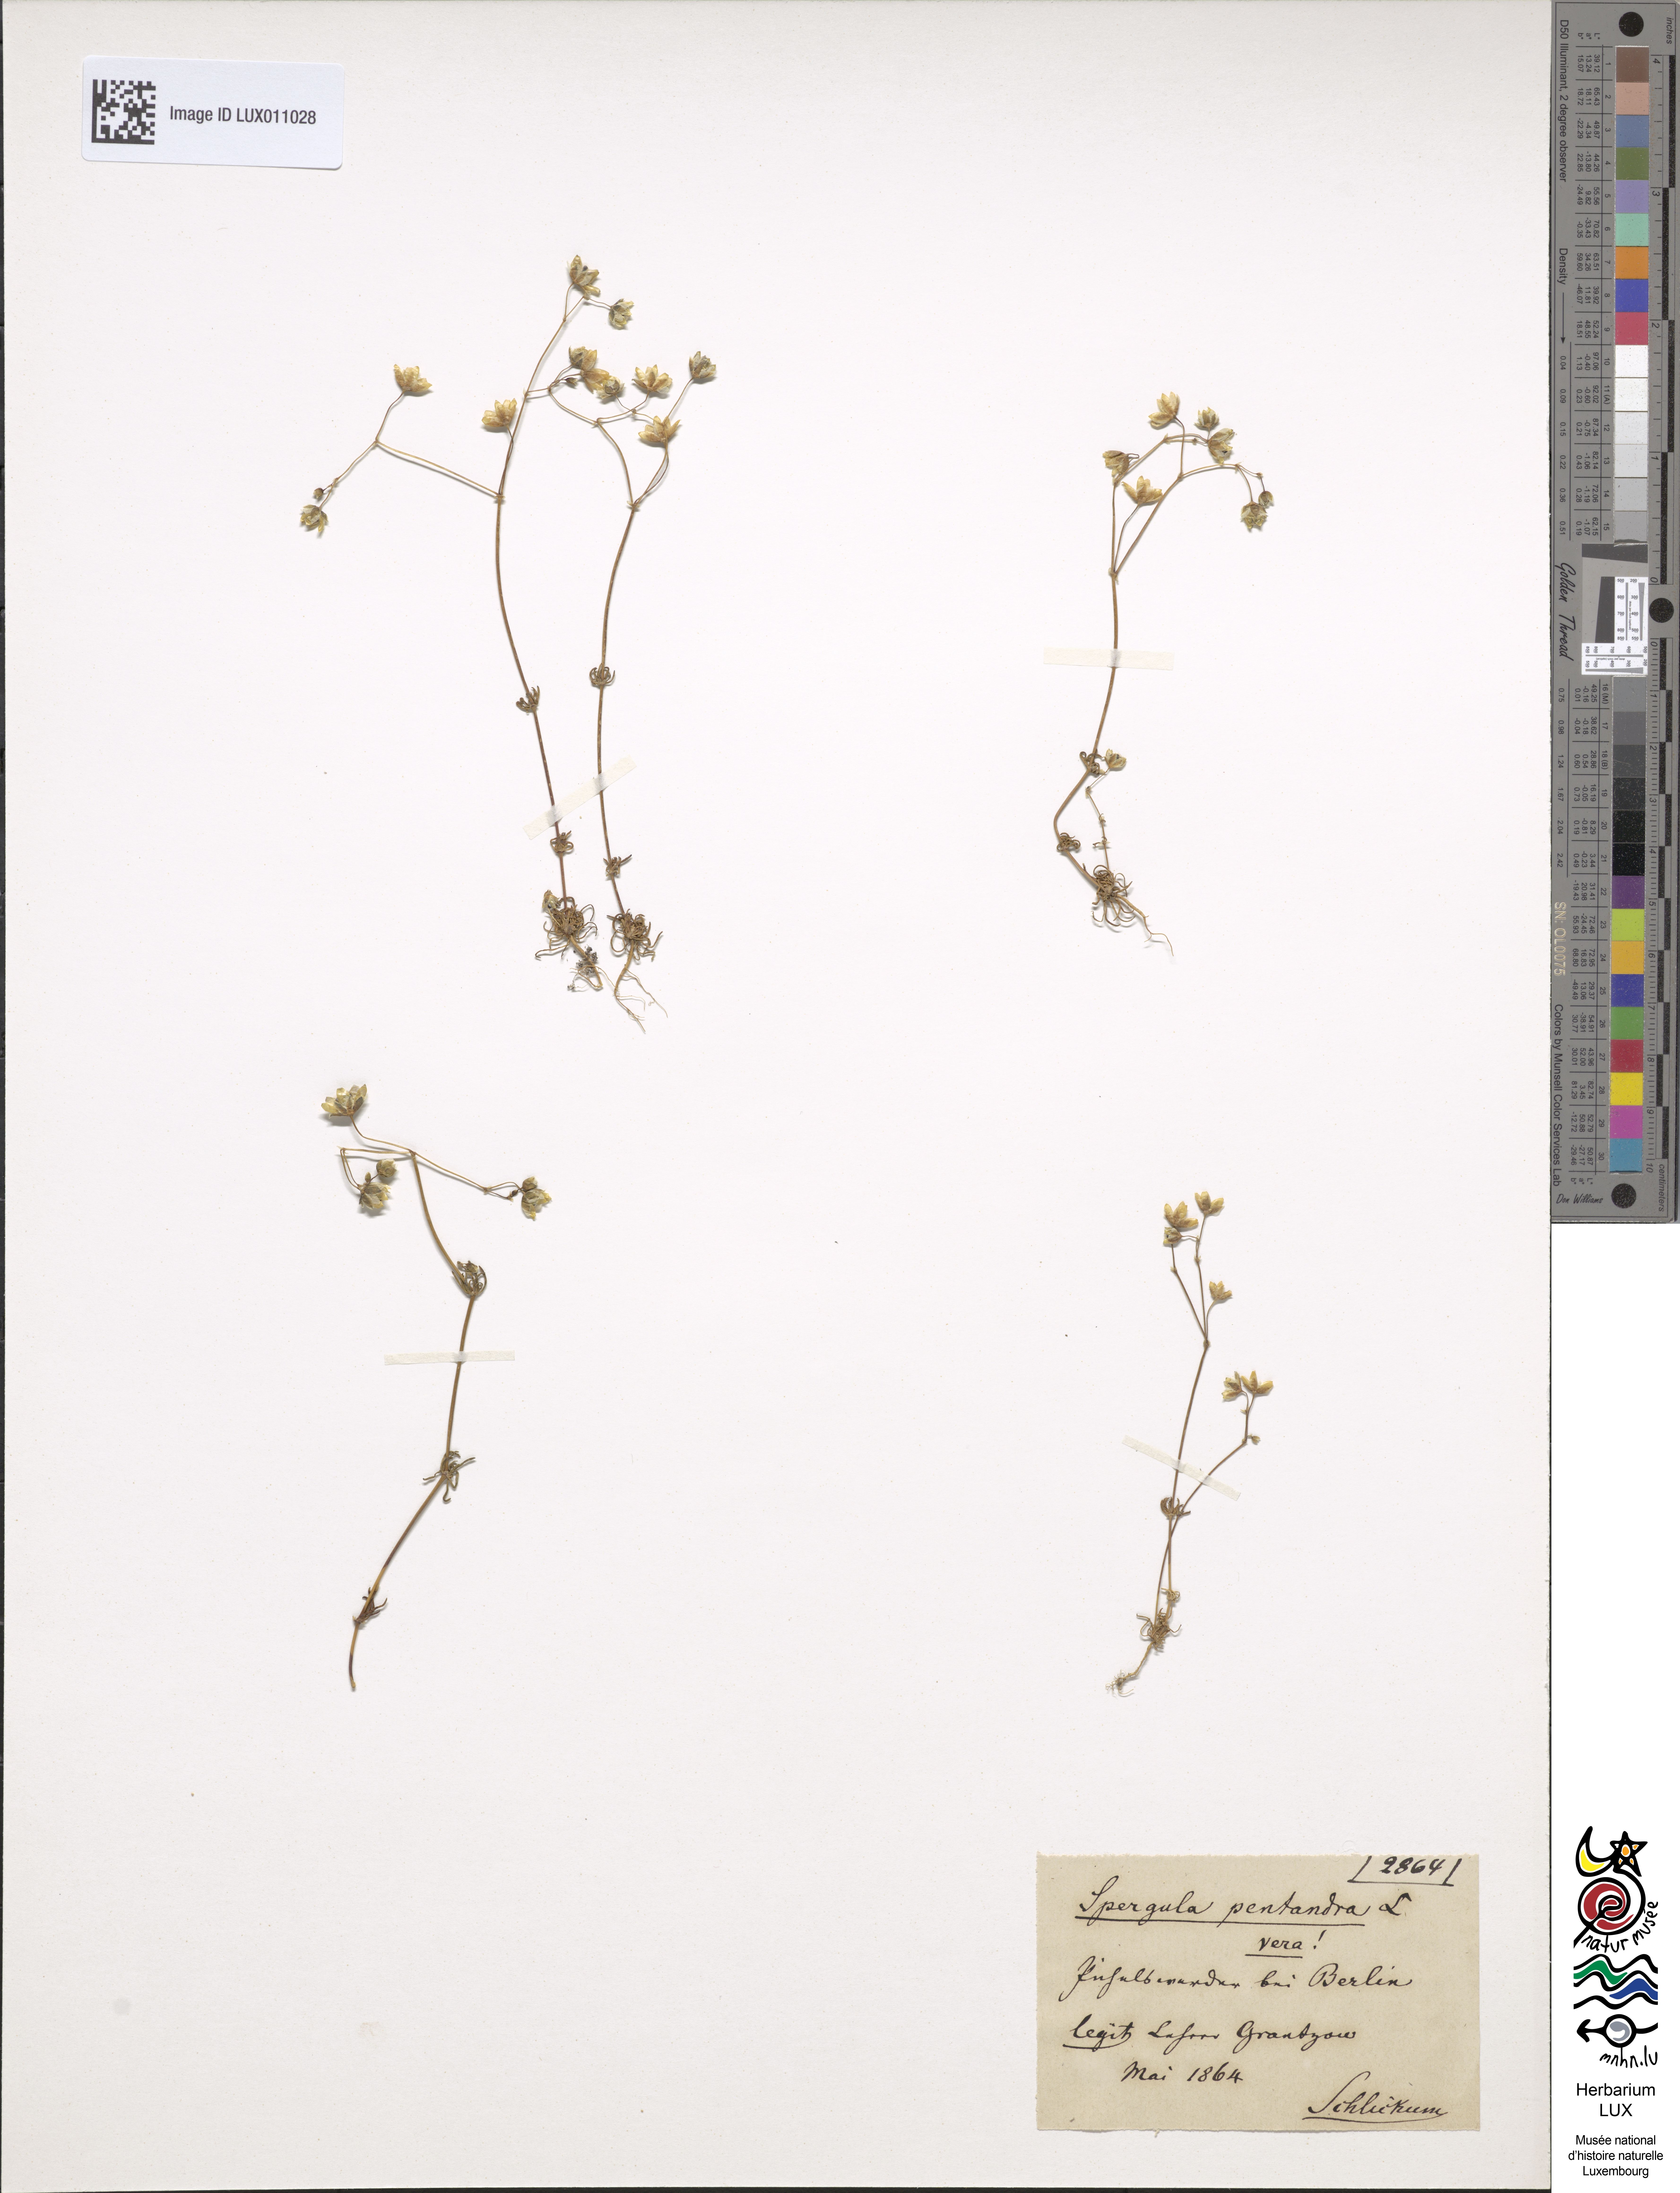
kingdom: Plantae
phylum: Tracheophyta
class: Magnoliopsida
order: Caryophyllales
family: Caryophyllaceae
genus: Spergula
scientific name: Spergula pentandra
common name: Wingstem spurry
